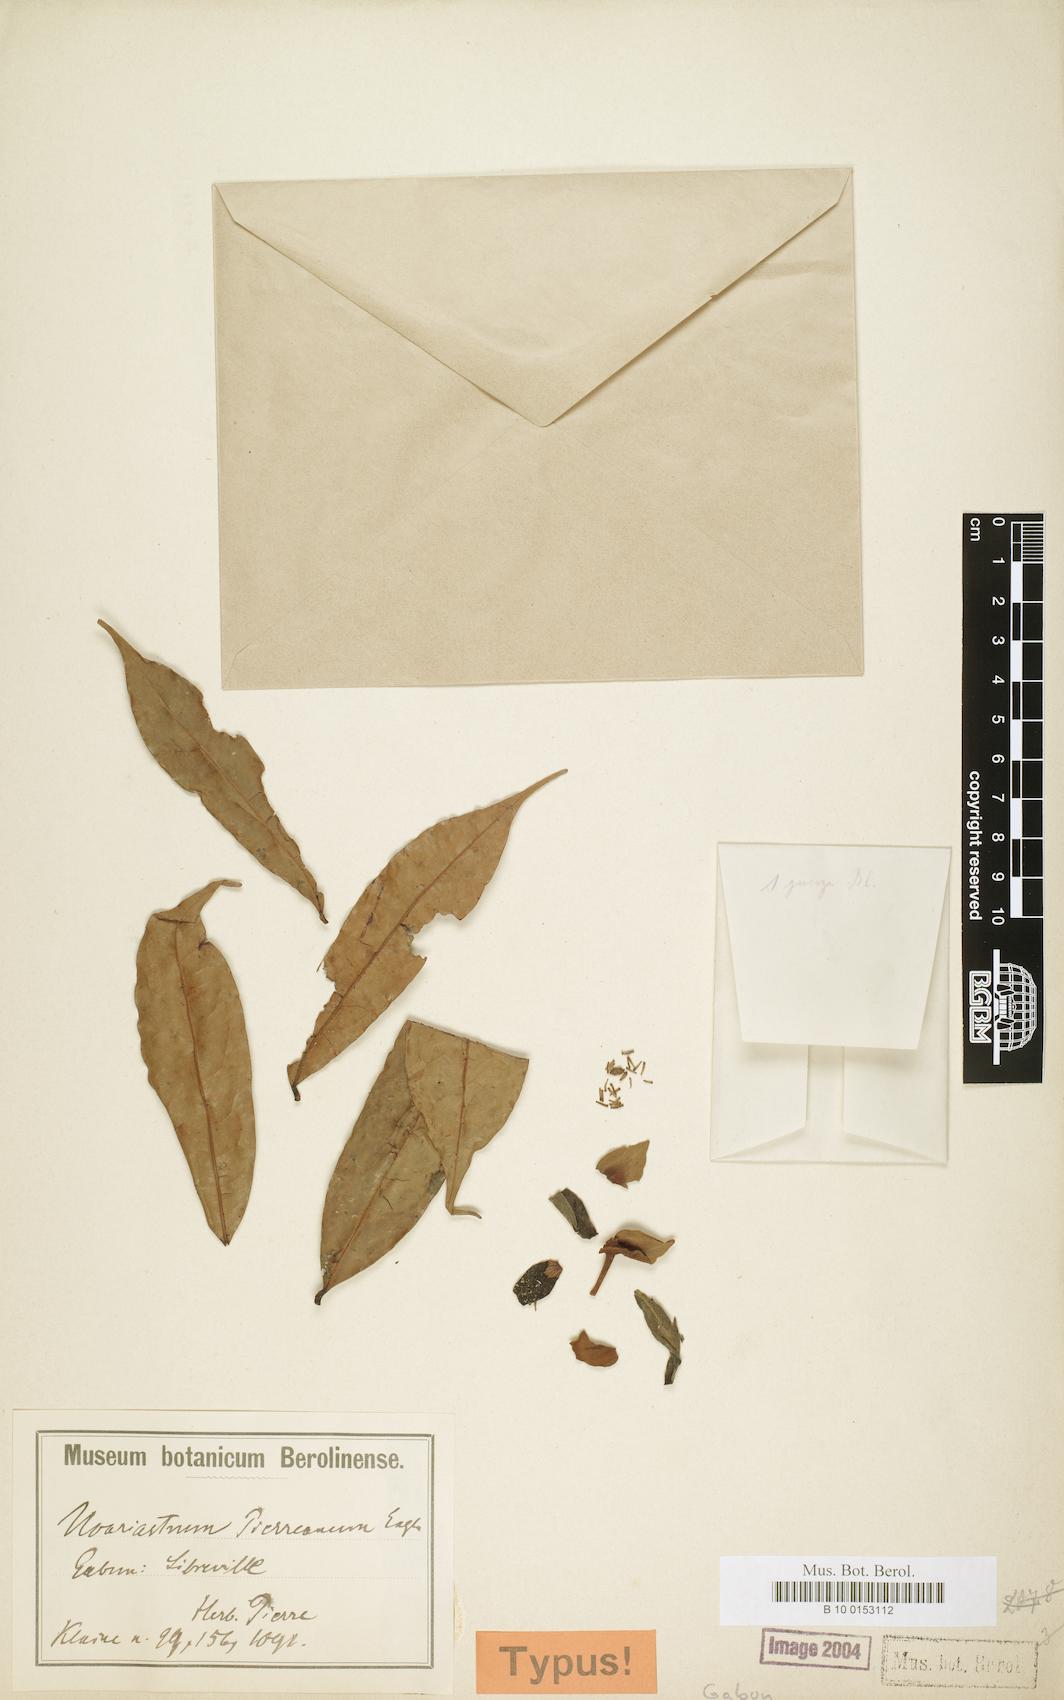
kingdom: Plantae
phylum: Tracheophyta
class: Magnoliopsida
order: Magnoliales
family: Annonaceae
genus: Uvariastrum
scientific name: Uvariastrum pierreanum
